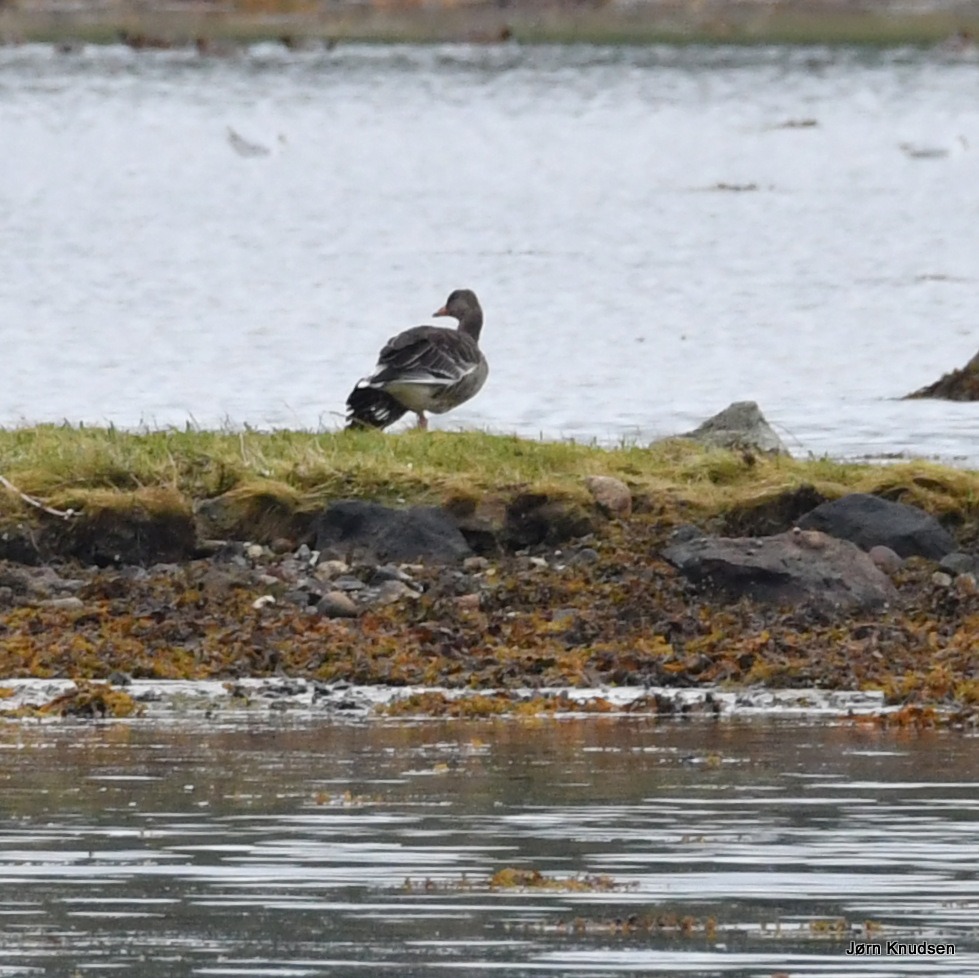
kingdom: Animalia
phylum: Chordata
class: Aves
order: Anseriformes
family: Anatidae
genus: Anser
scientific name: Anser anser
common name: Grågås
